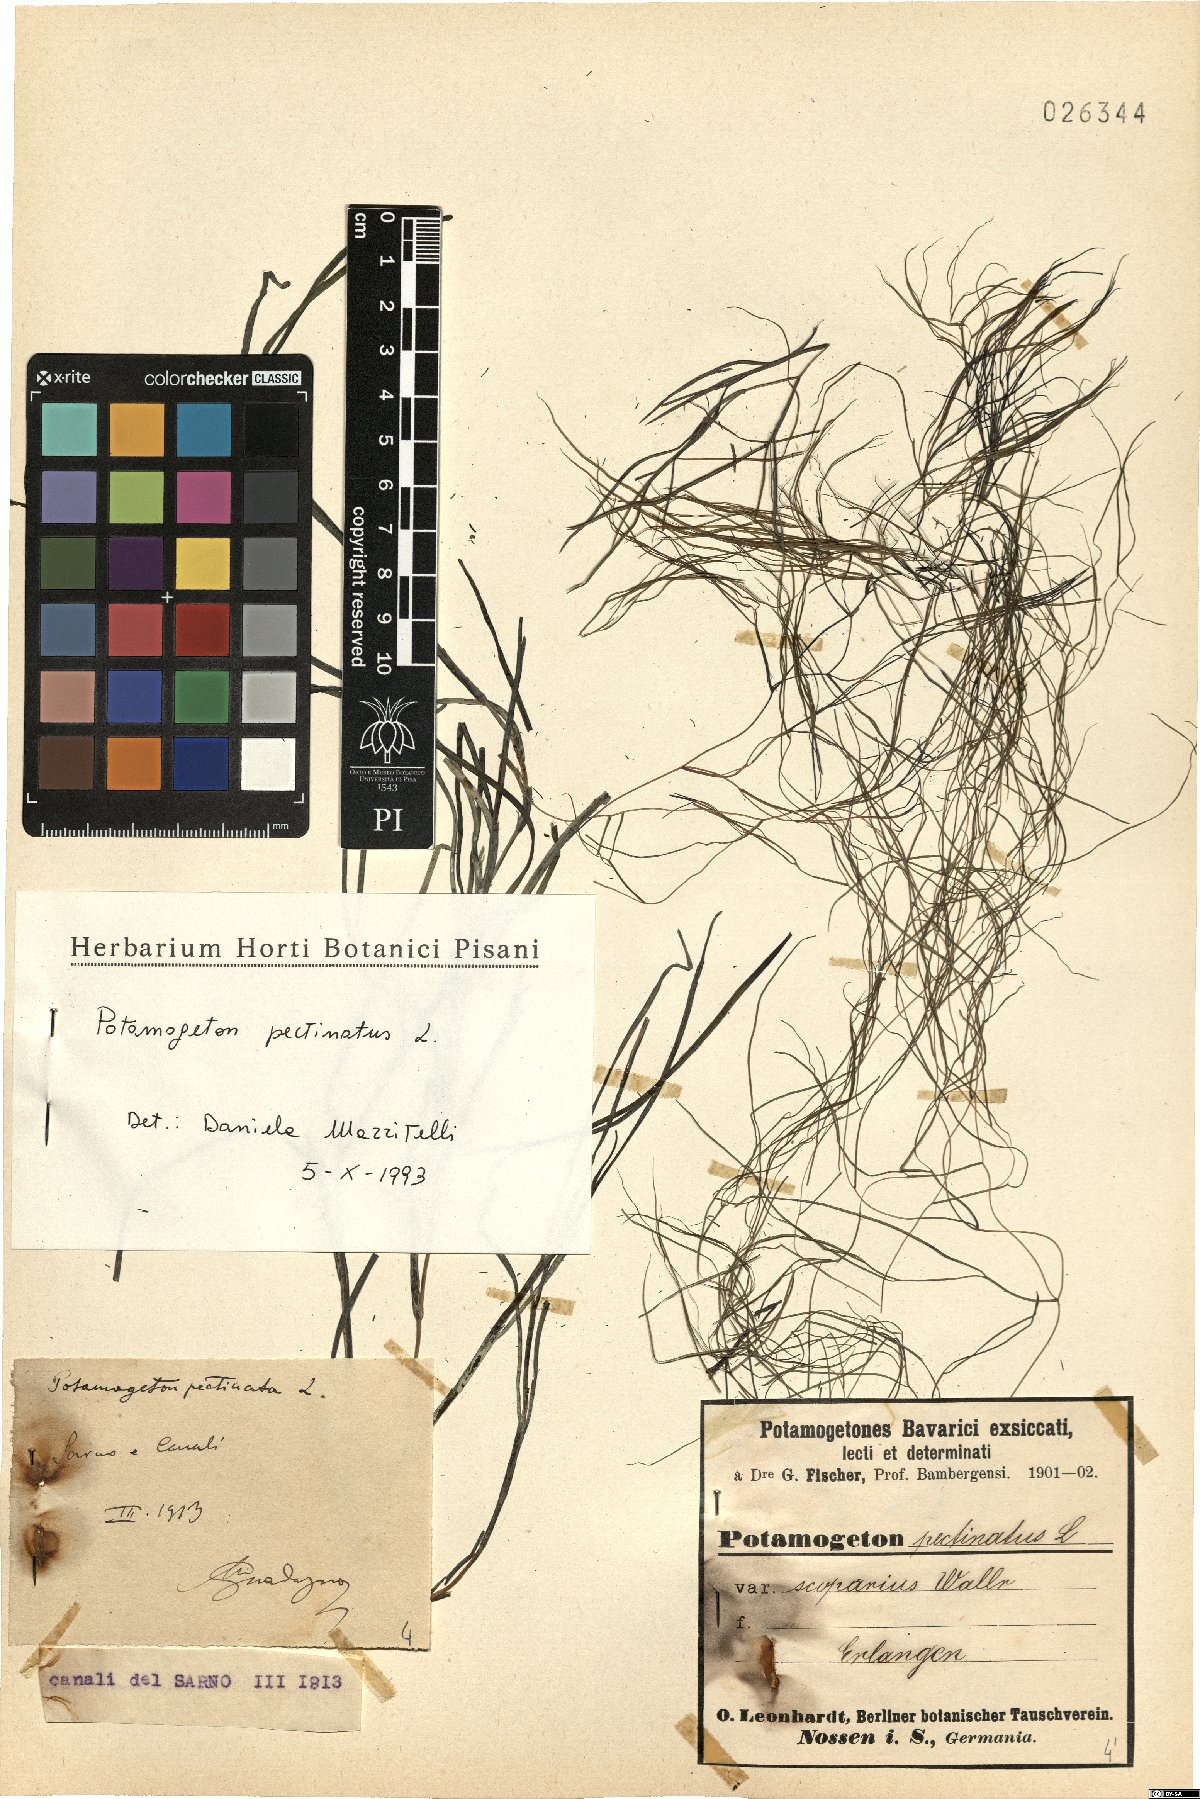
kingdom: Plantae
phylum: Tracheophyta
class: Liliopsida
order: Alismatales
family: Potamogetonaceae
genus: Stuckenia
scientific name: Stuckenia pectinata
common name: Sago pondweed
